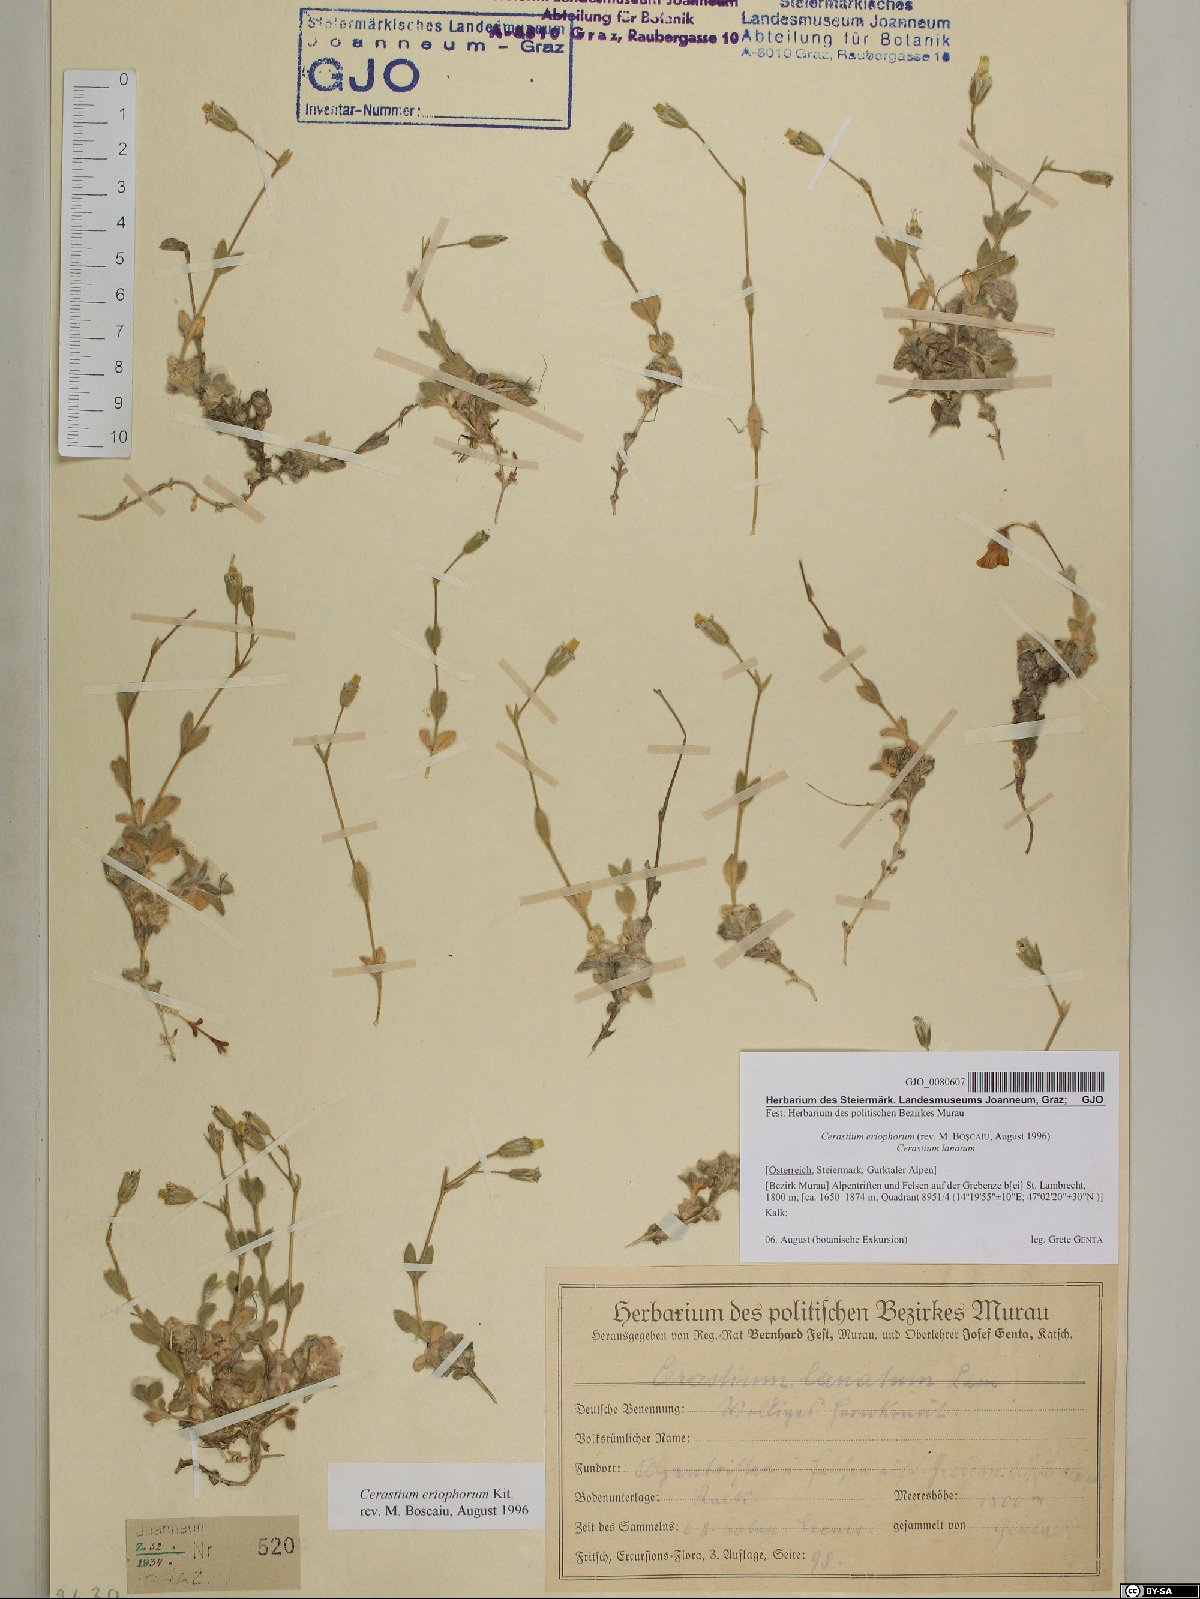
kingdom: Plantae
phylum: Tracheophyta
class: Magnoliopsida
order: Caryophyllales
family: Caryophyllaceae
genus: Cerastium
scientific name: Cerastium eriophorum
